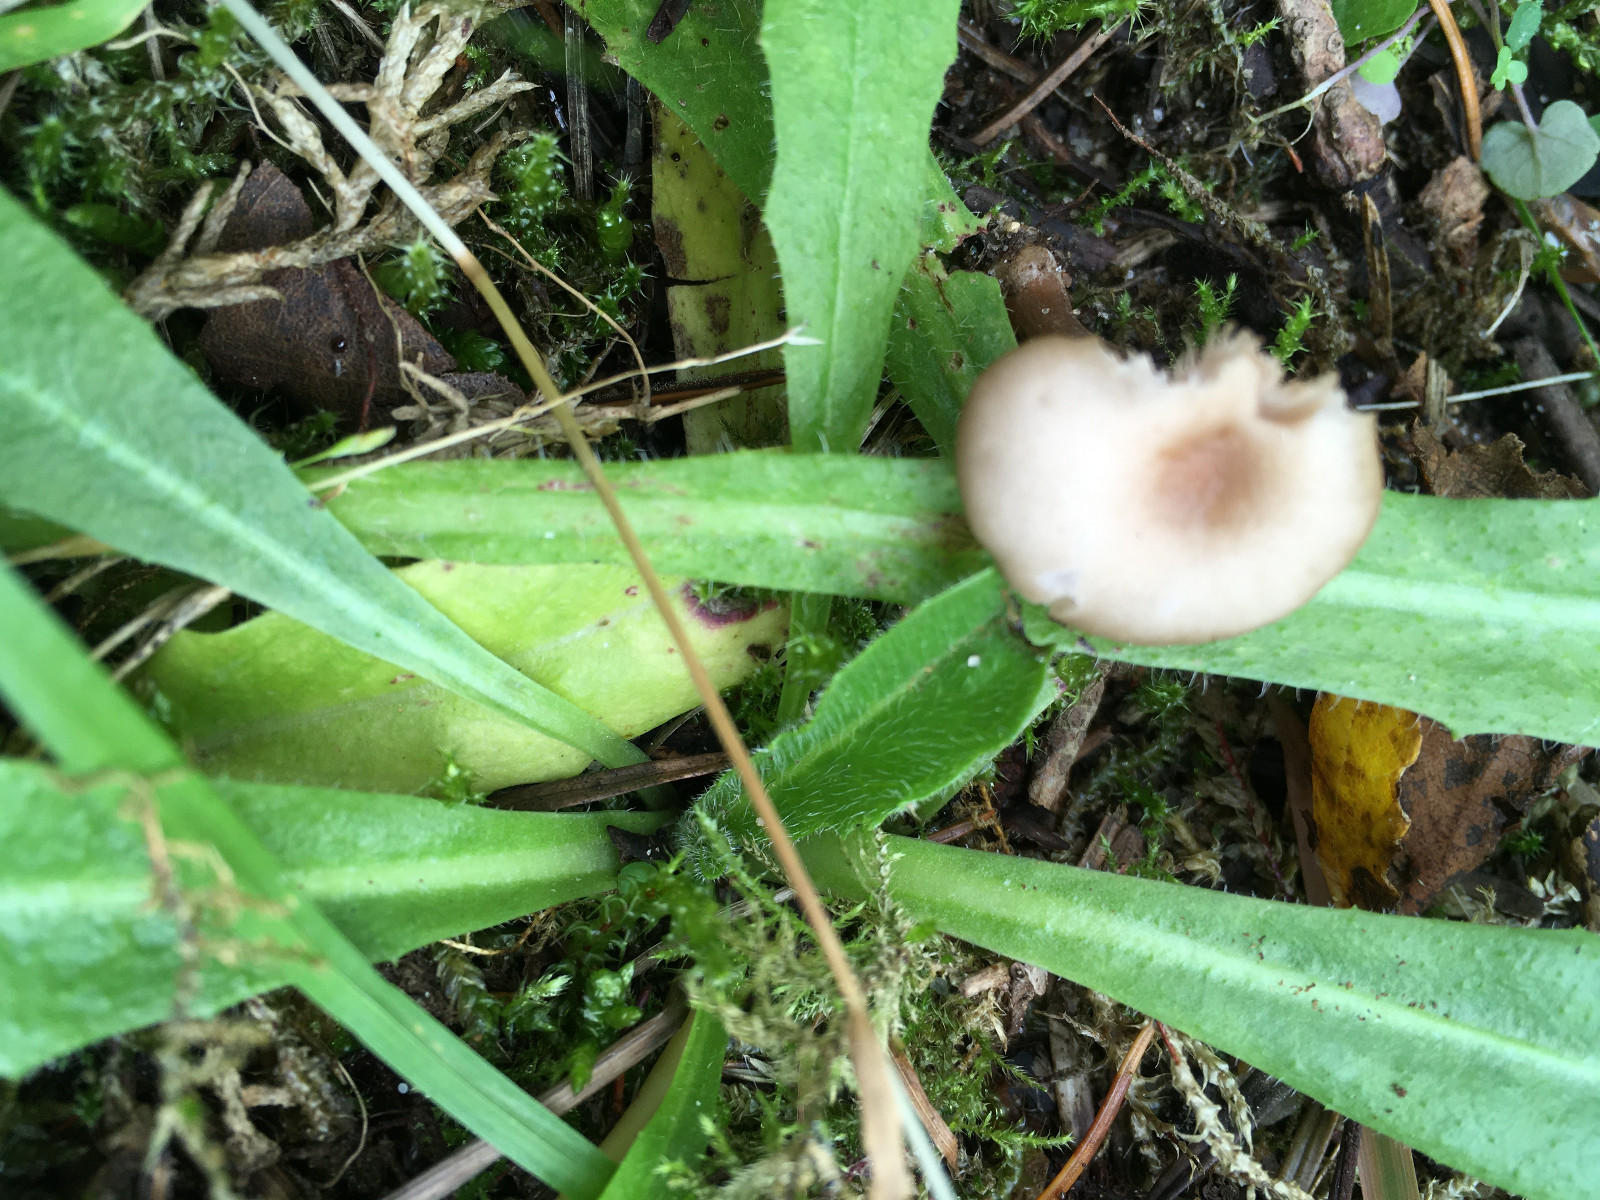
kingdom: Fungi
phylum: Basidiomycota
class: Agaricomycetes
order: Agaricales
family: Tricholomataceae
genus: Clitocybe
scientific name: Clitocybe fragrans
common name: vellugtende tragthat
